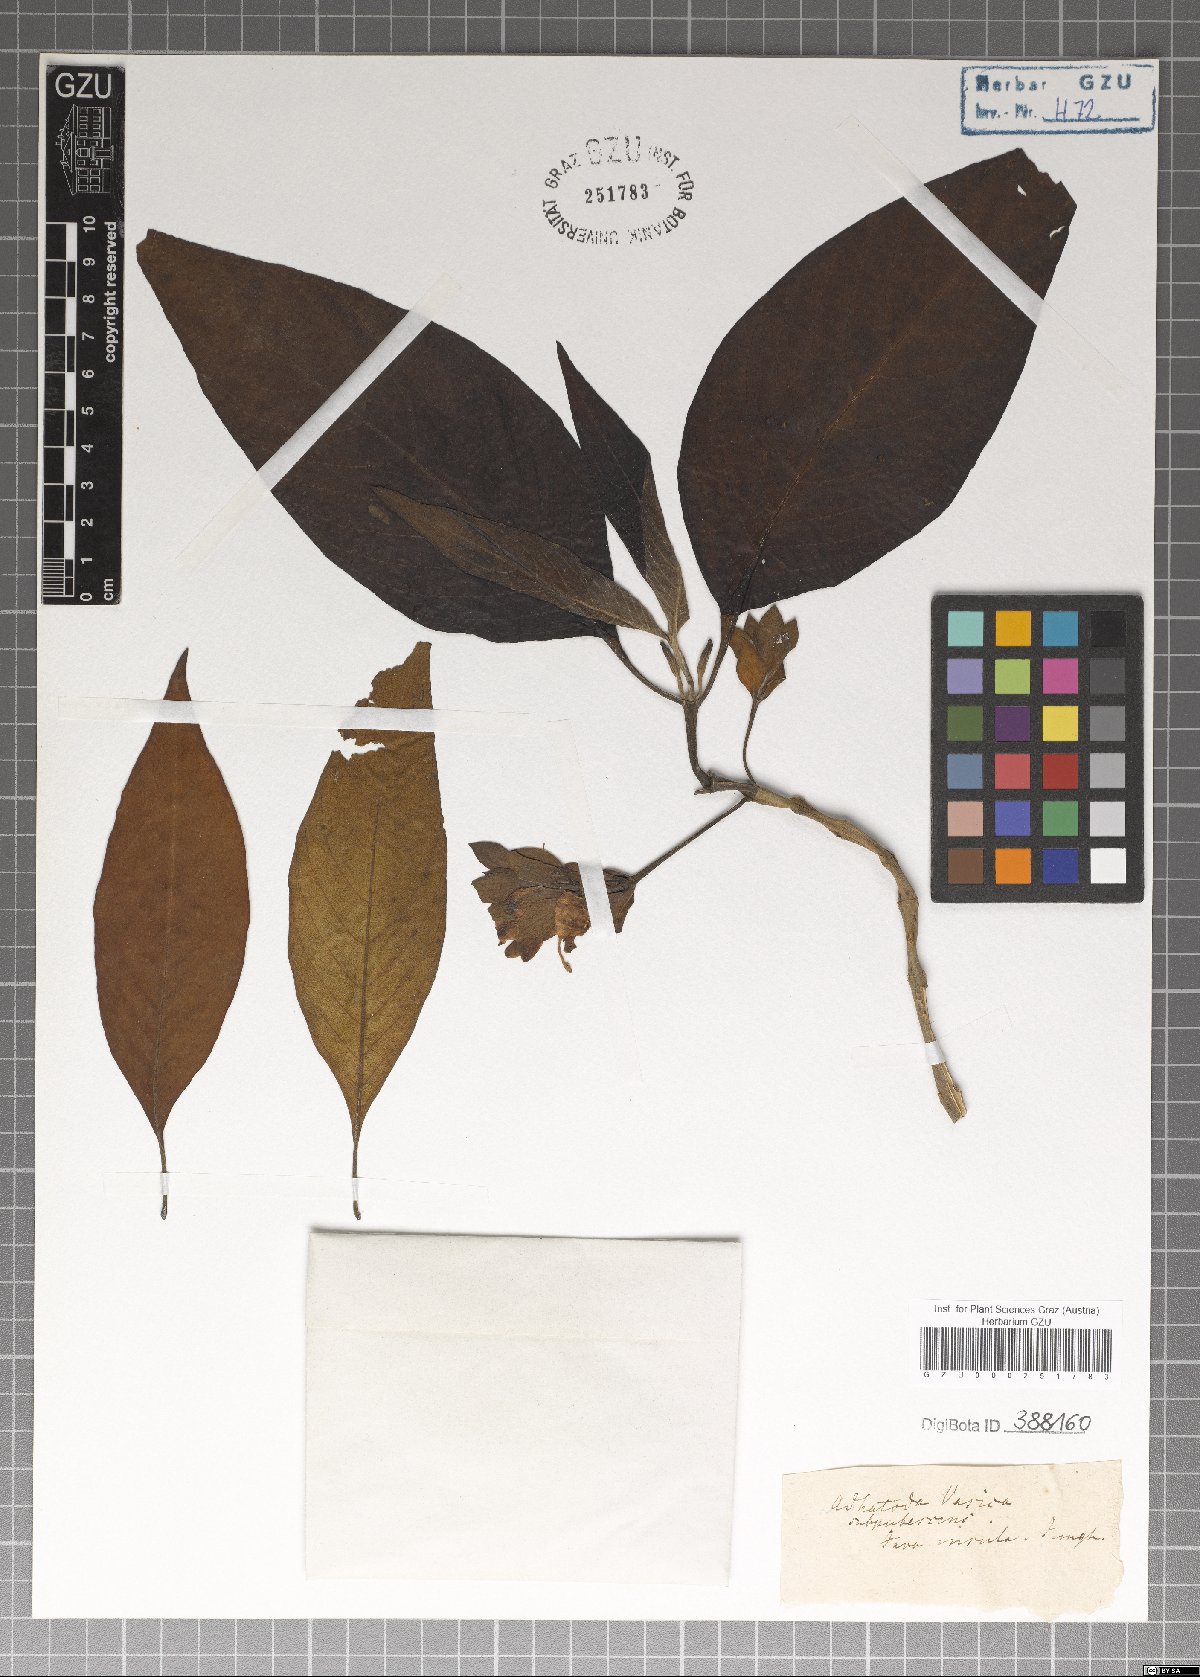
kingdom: Plantae
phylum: Tracheophyta
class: Magnoliopsida
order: Lamiales
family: Acanthaceae
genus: Justicia
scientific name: Justicia adhatoda
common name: Malabar nut
